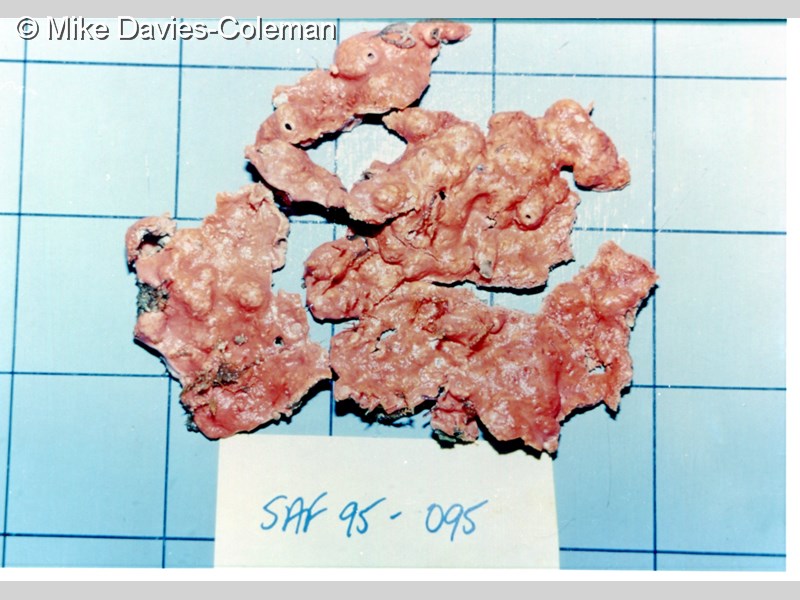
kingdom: Animalia
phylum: Chordata
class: Ascidiacea
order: Aplousobranchia
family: Didemnidae
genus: Didemnum
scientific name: Didemnum
